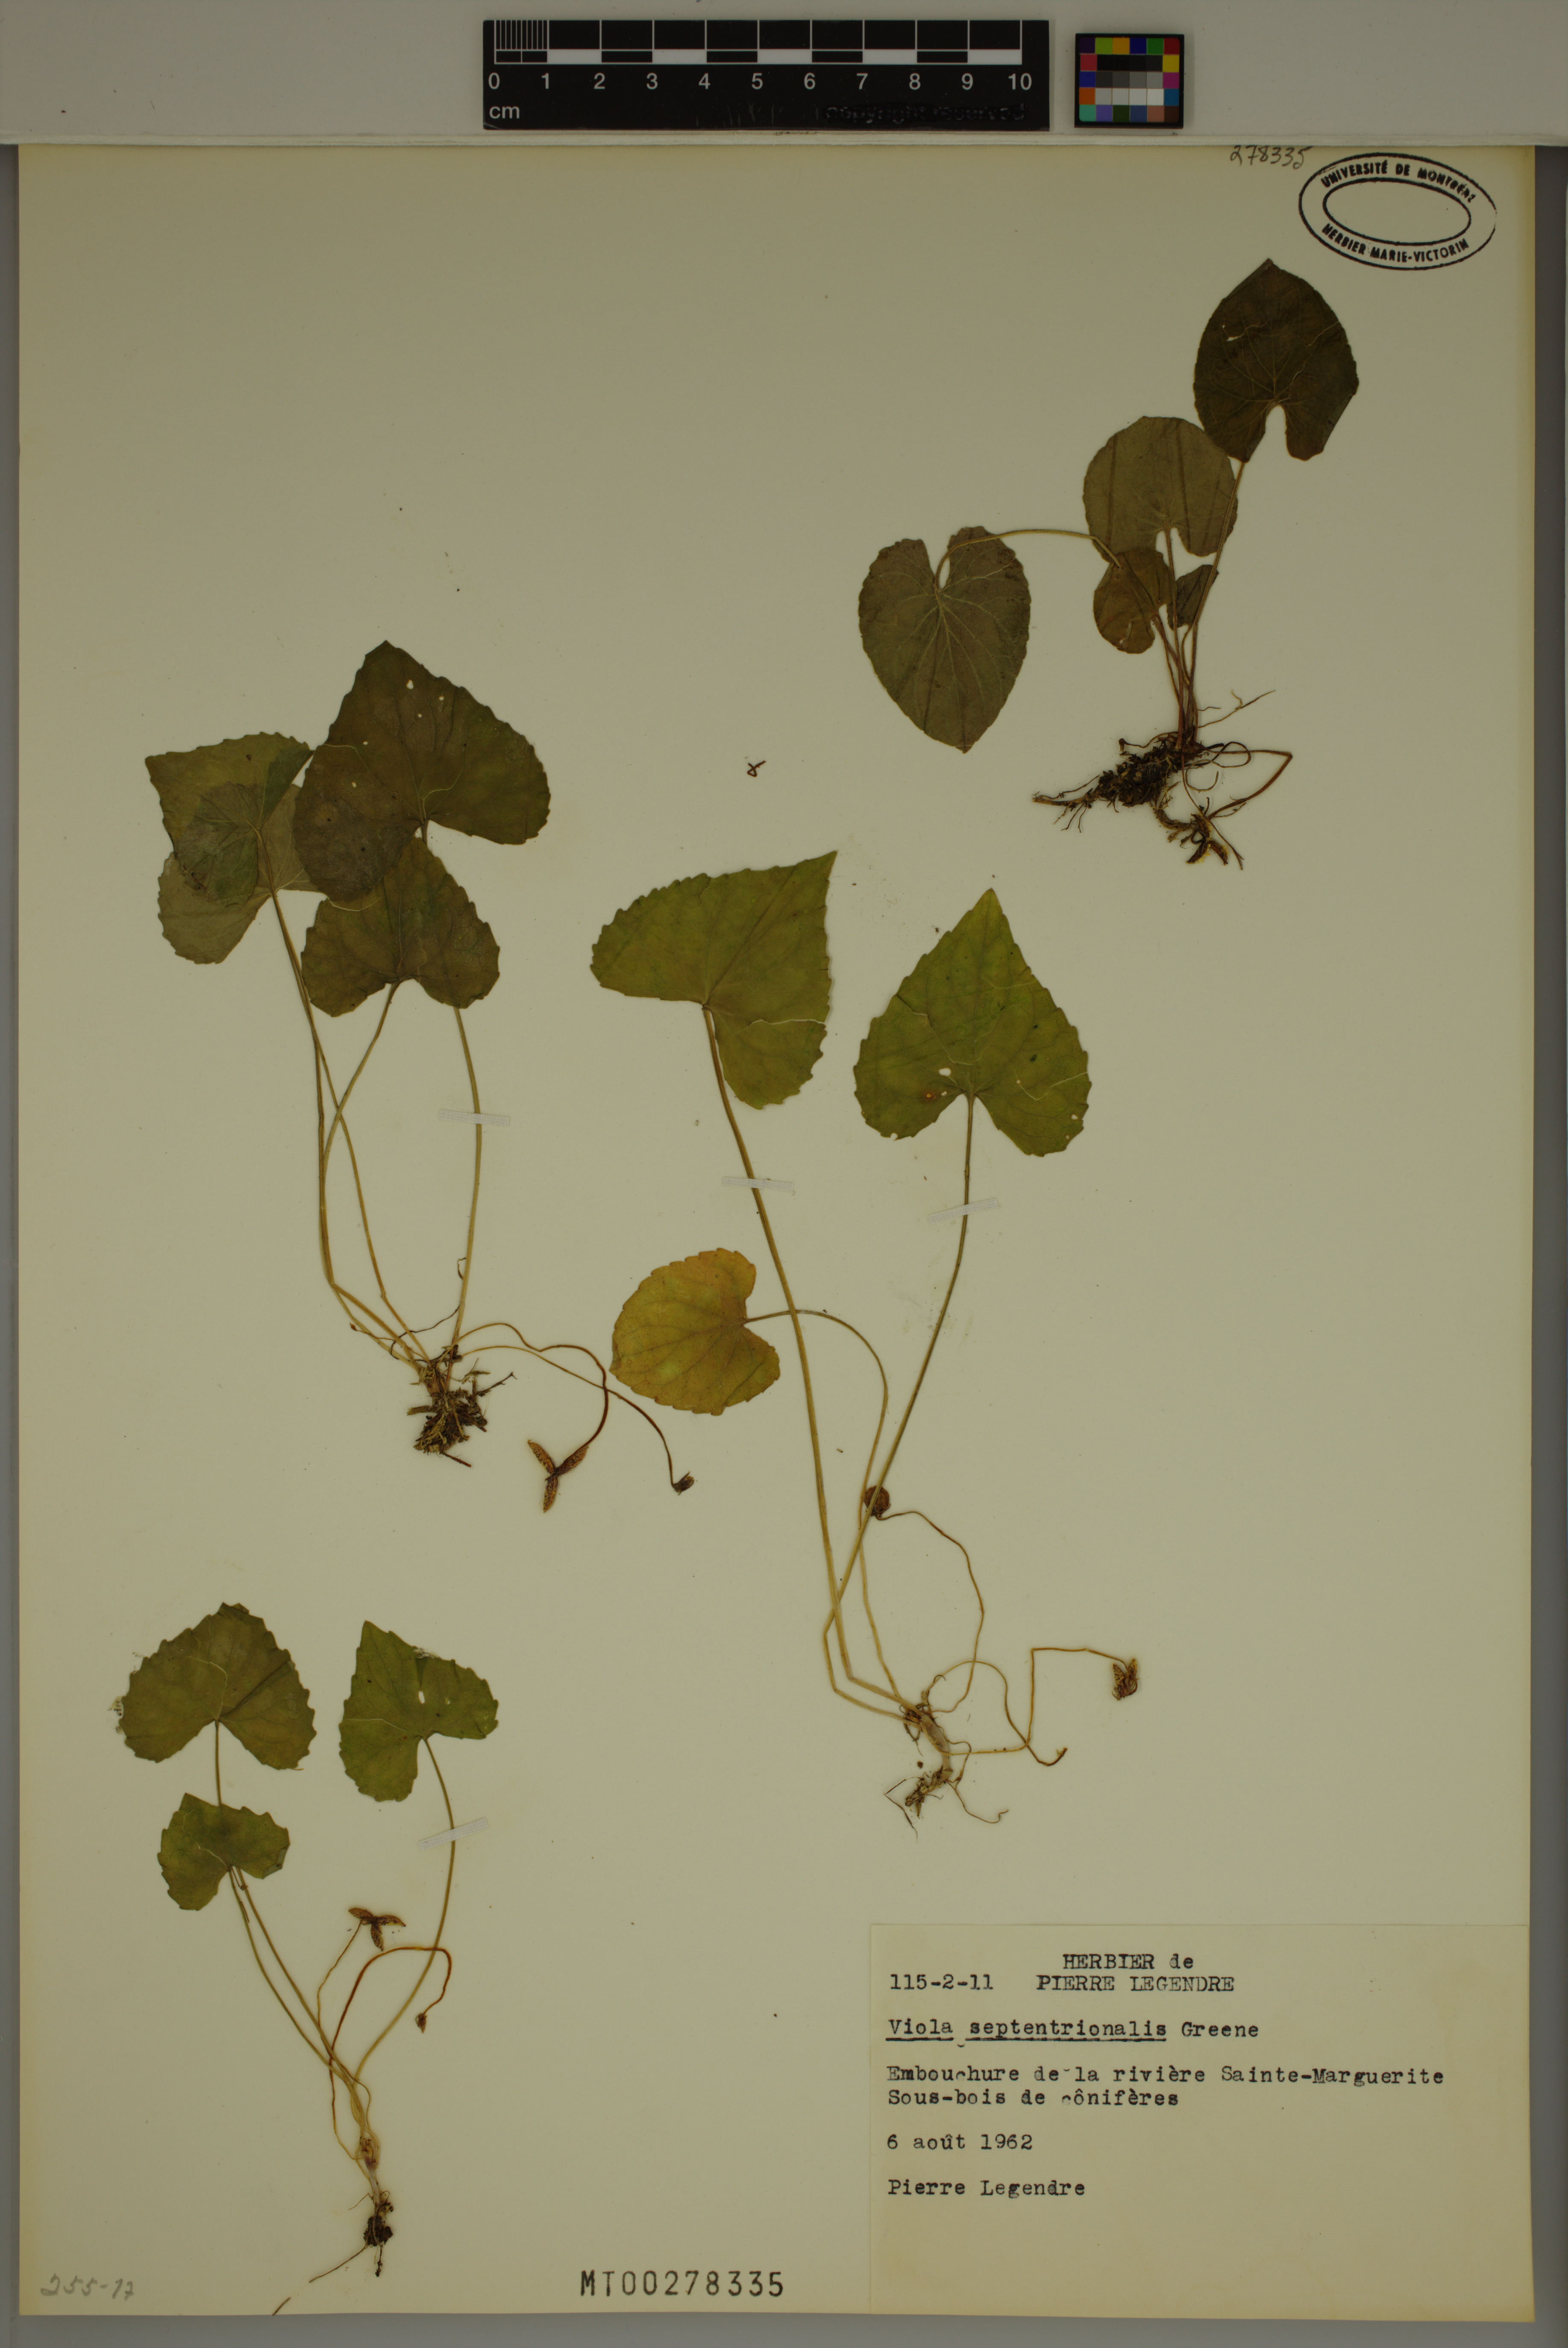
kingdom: Plantae
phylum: Tracheophyta
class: Magnoliopsida
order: Malpighiales
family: Violaceae
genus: Viola
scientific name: Viola septentrionalis
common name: Northern woodland violet
